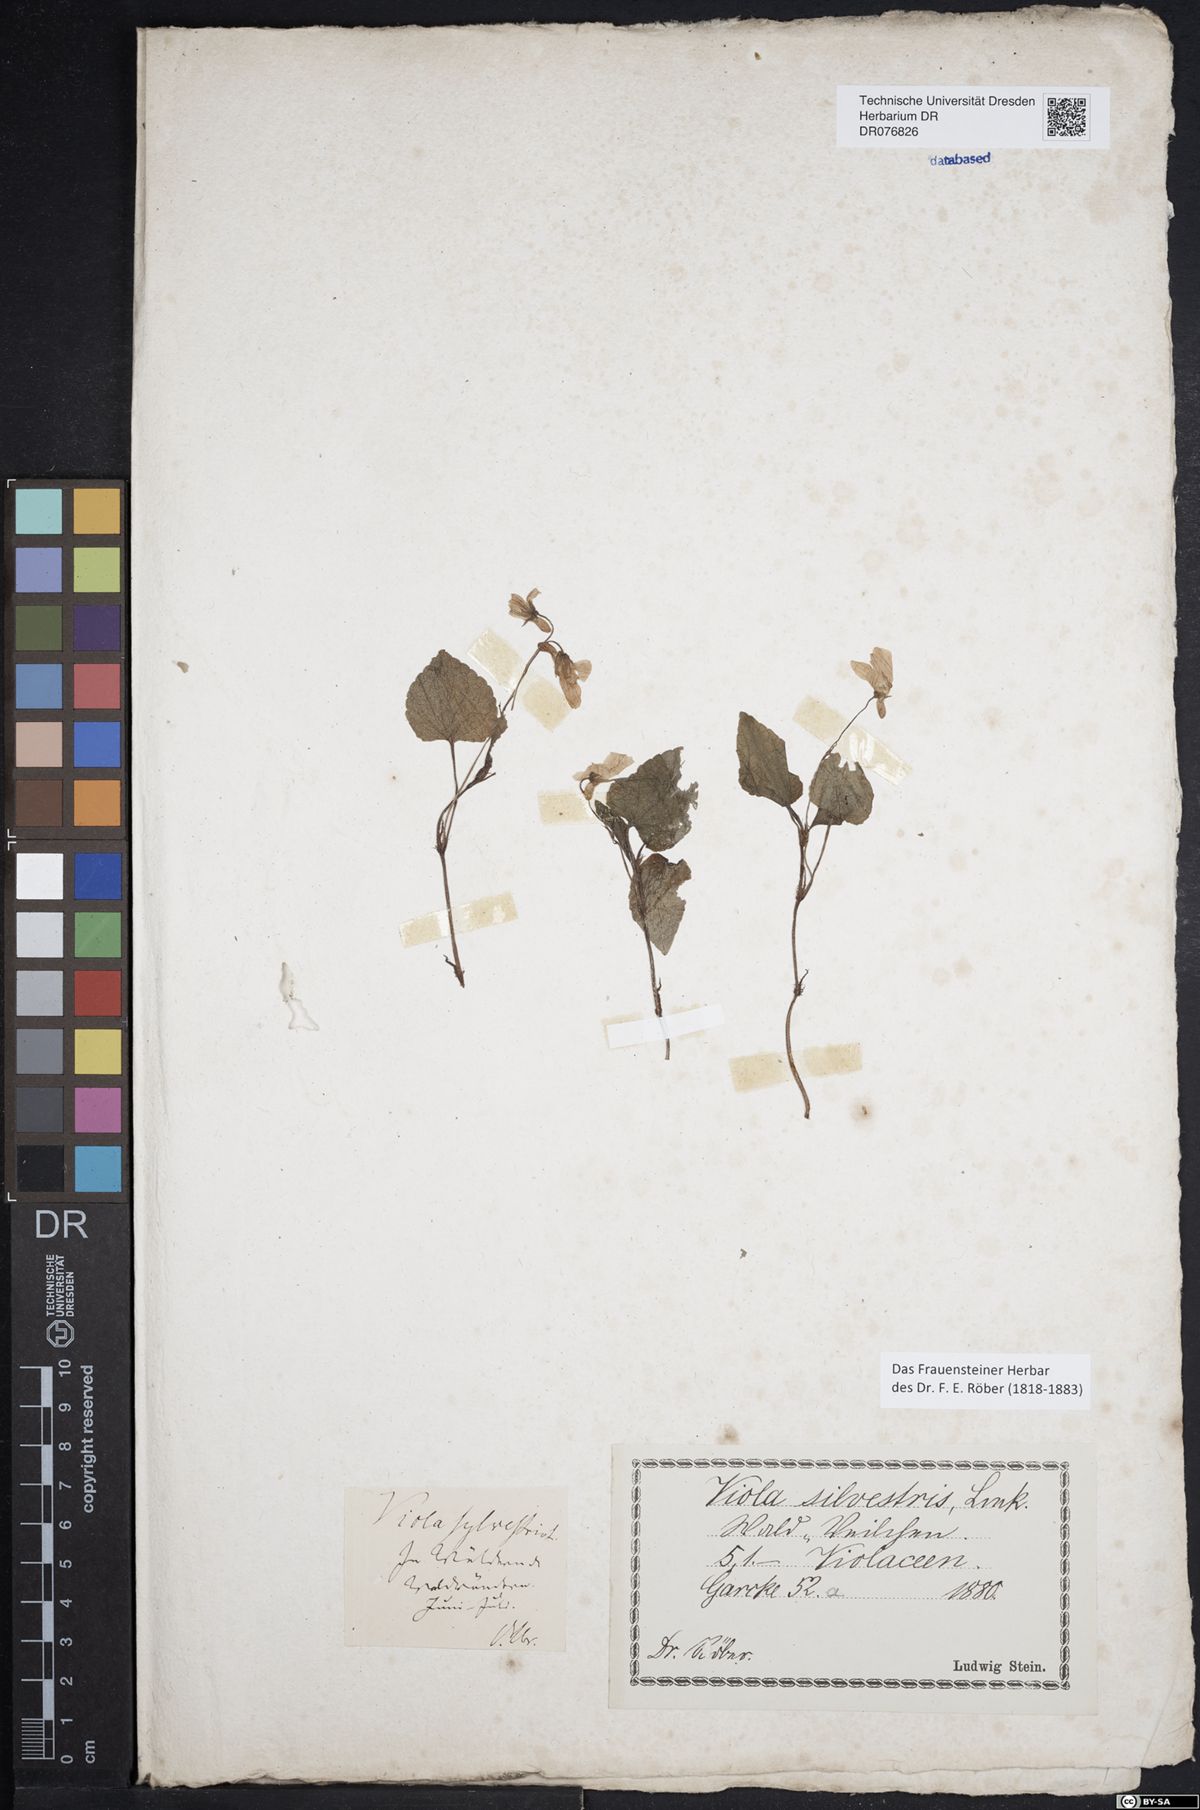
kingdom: Plantae
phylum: Tracheophyta
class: Magnoliopsida
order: Malpighiales
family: Violaceae
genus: Viola
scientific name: Viola
